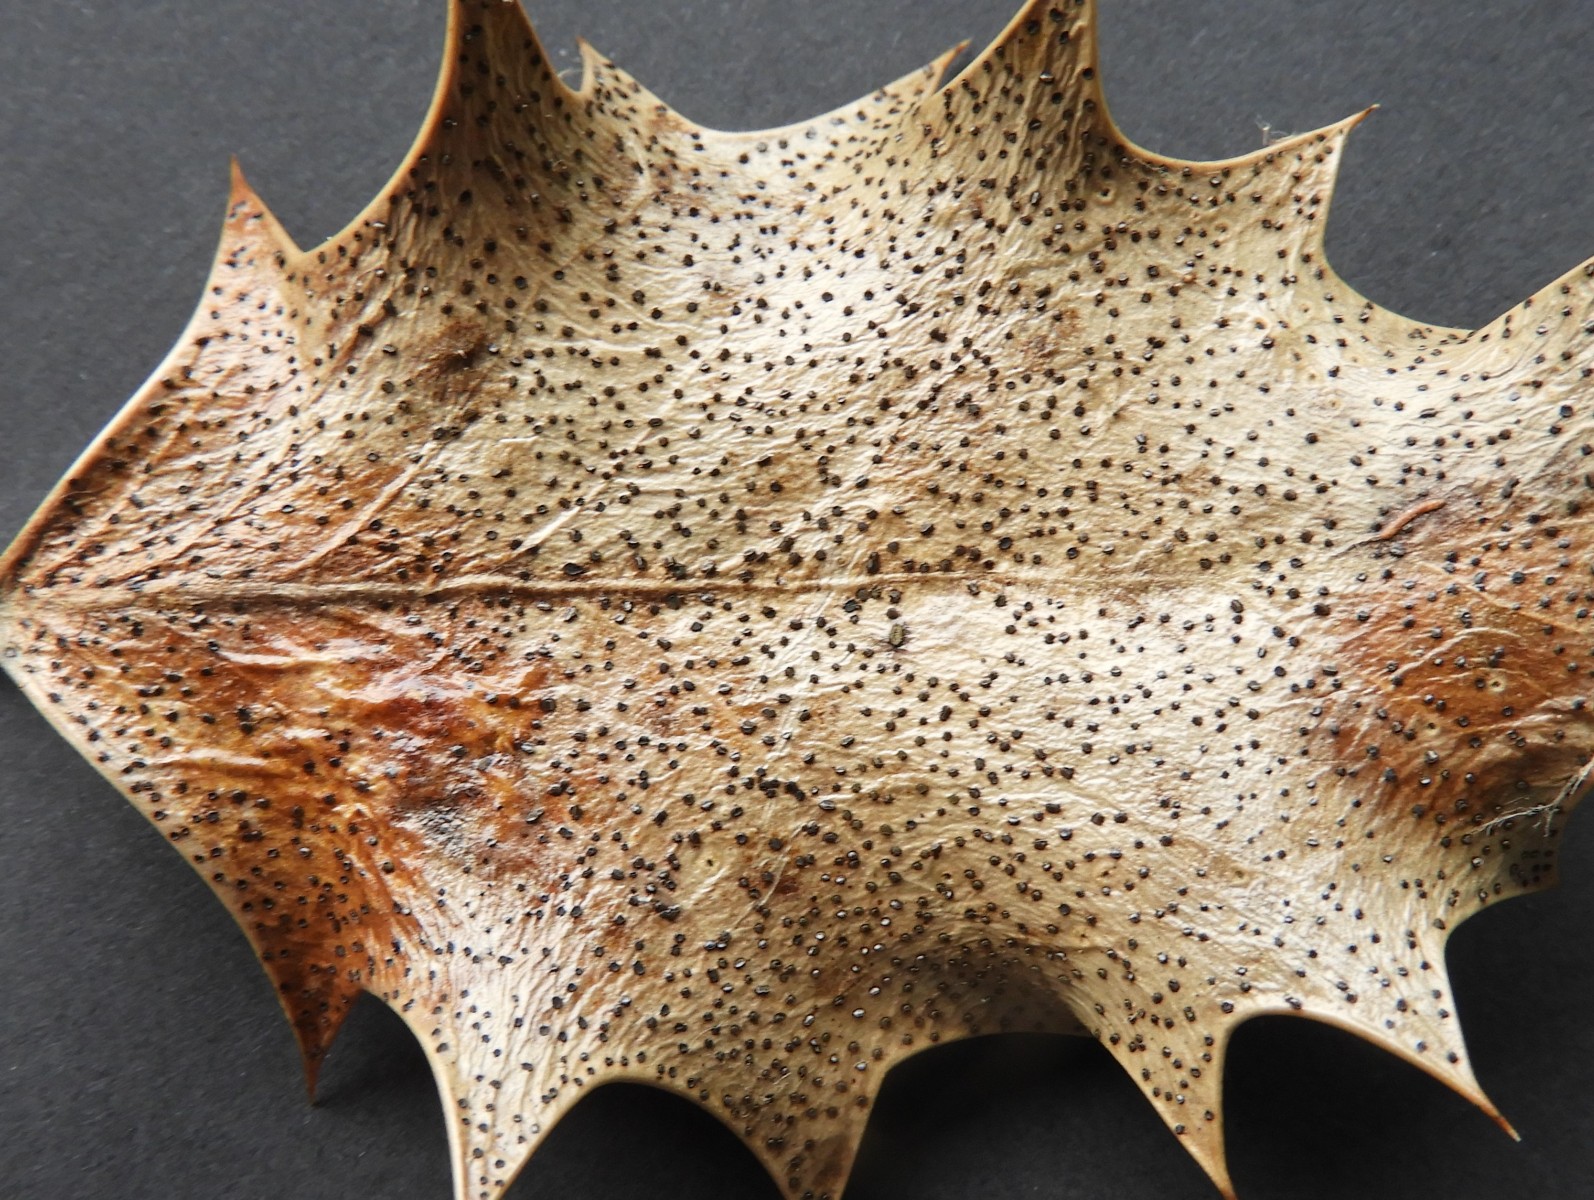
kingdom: Fungi
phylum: Ascomycota
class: Leotiomycetes
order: Helotiales
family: Cenangiaceae
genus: Trochila
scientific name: Trochila ilicina
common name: kristtorn-lågskive
